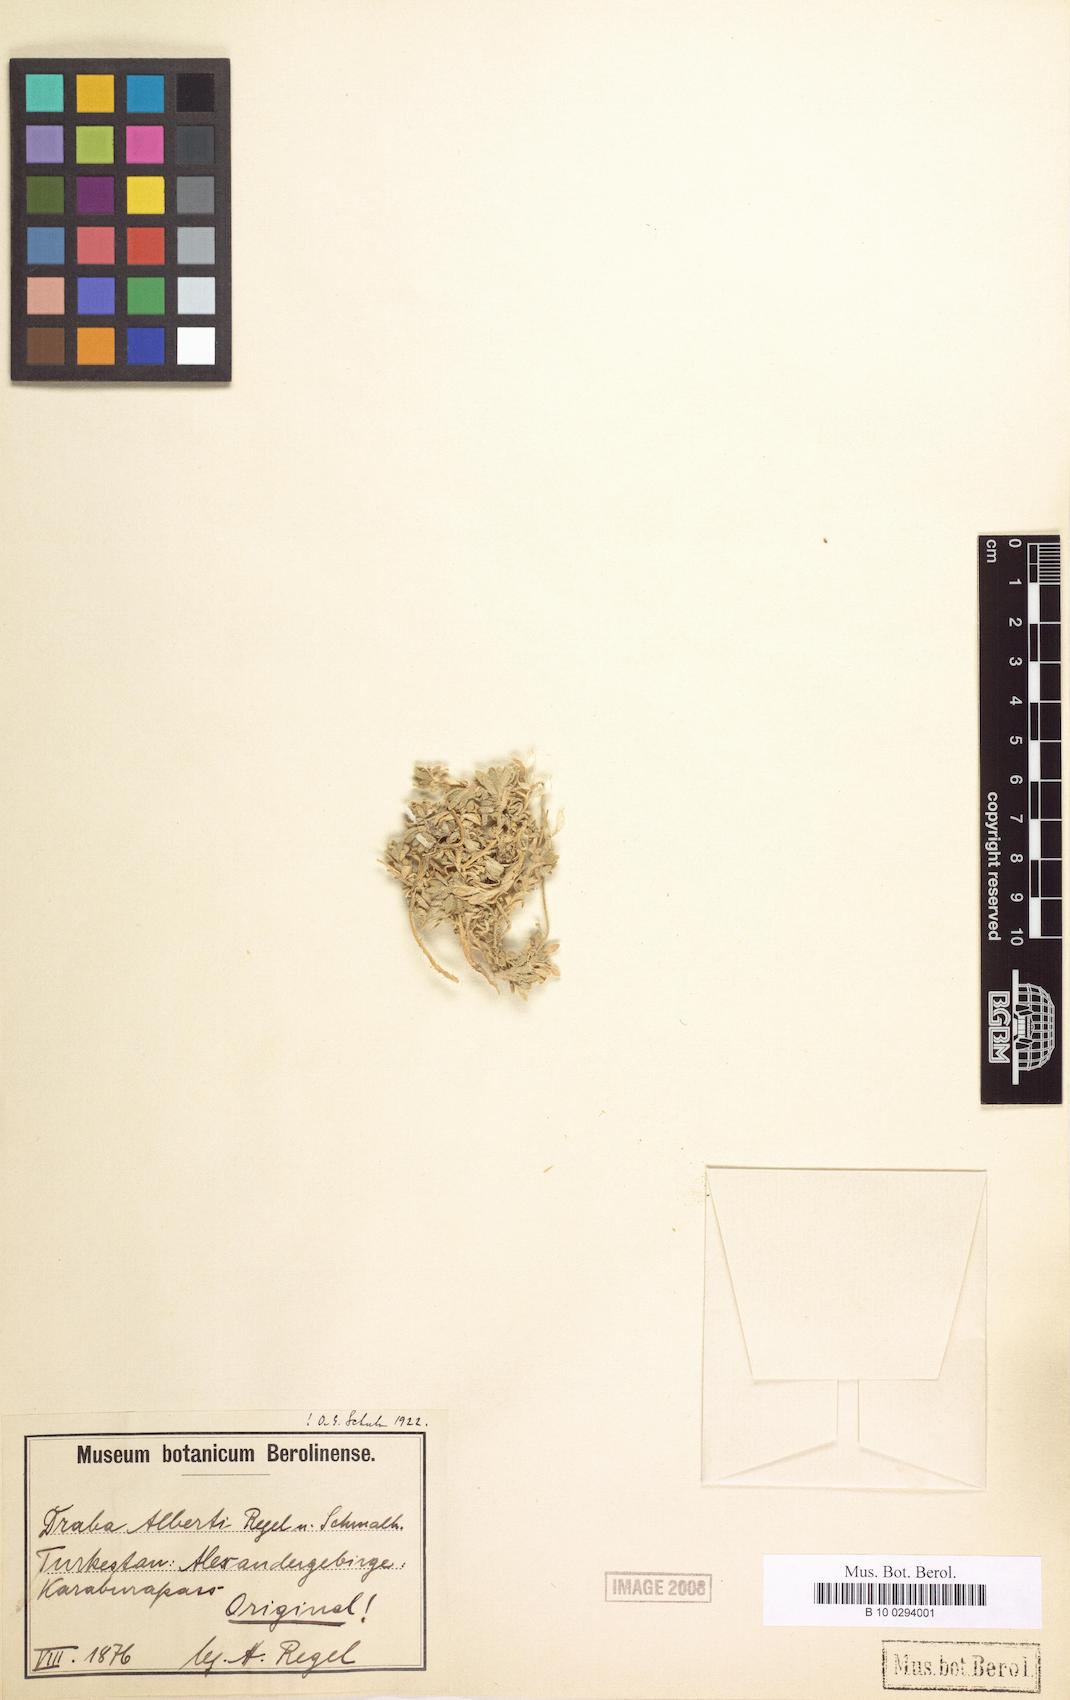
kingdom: Plantae
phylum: Tracheophyta
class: Magnoliopsida
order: Brassicales
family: Brassicaceae
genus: Draba
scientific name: Draba alberti
